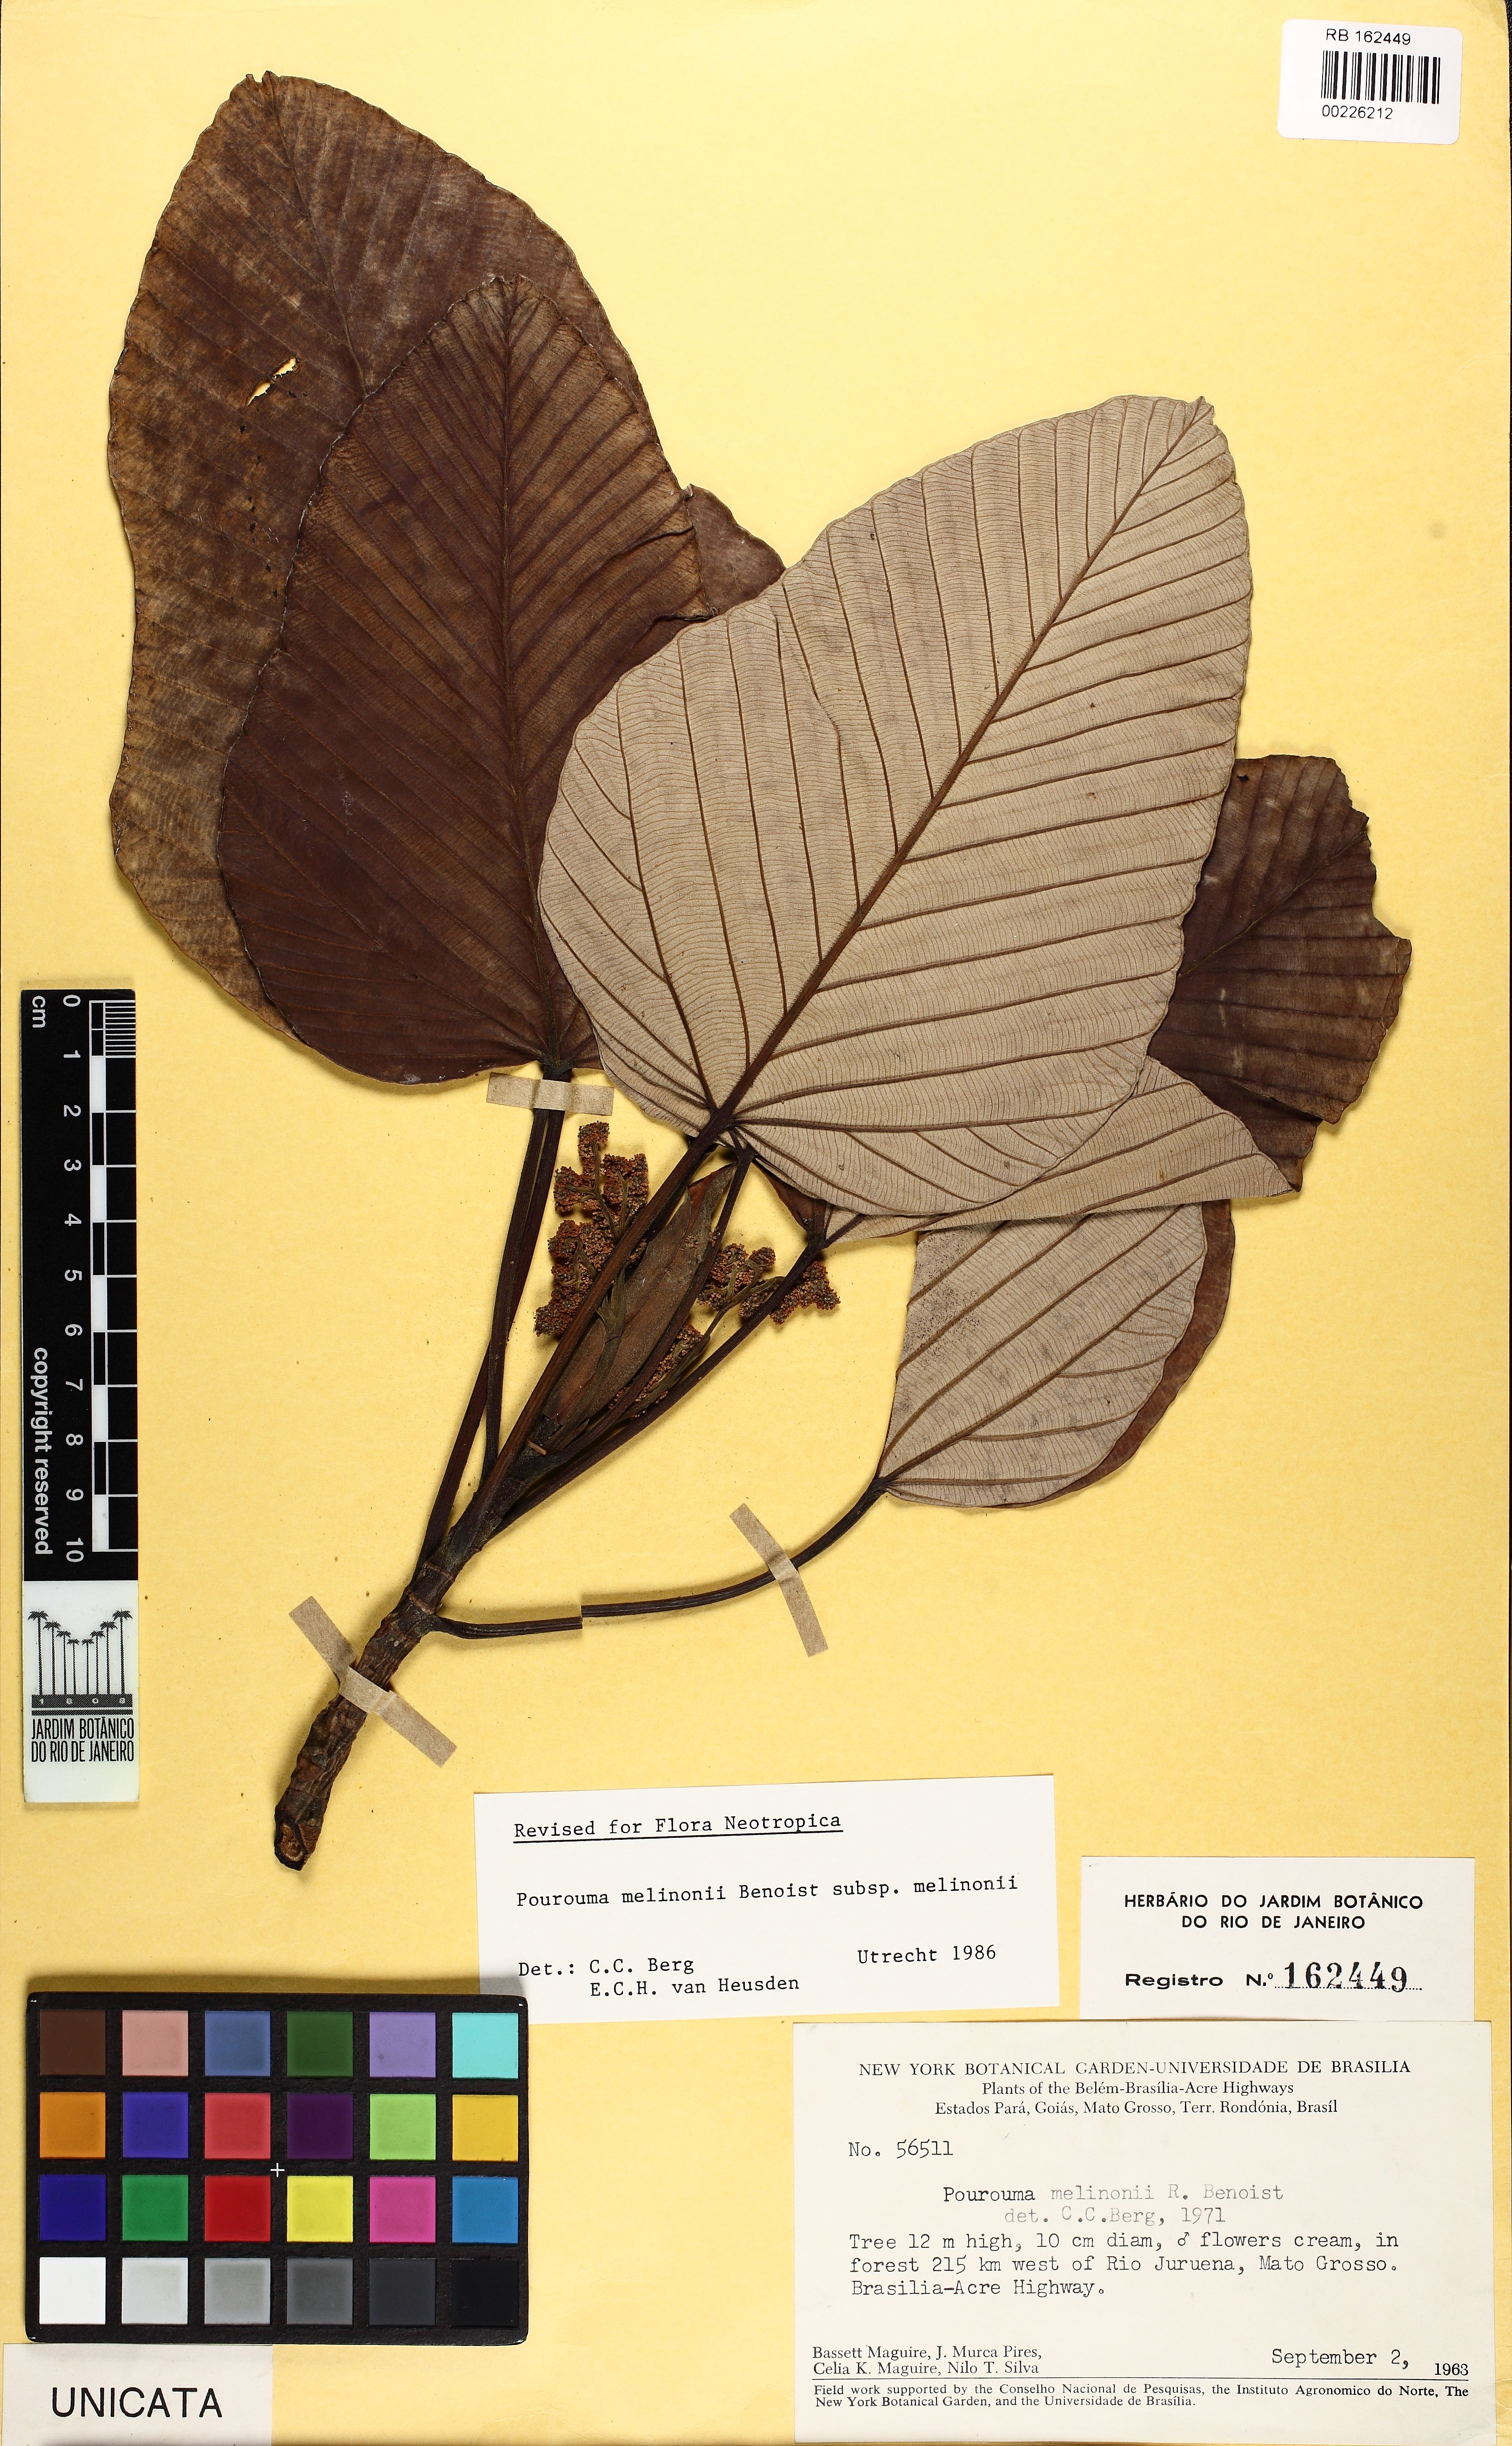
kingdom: Plantae
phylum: Tracheophyta
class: Magnoliopsida
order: Rosales
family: Urticaceae
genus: Pourouma
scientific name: Pourouma melinonii
